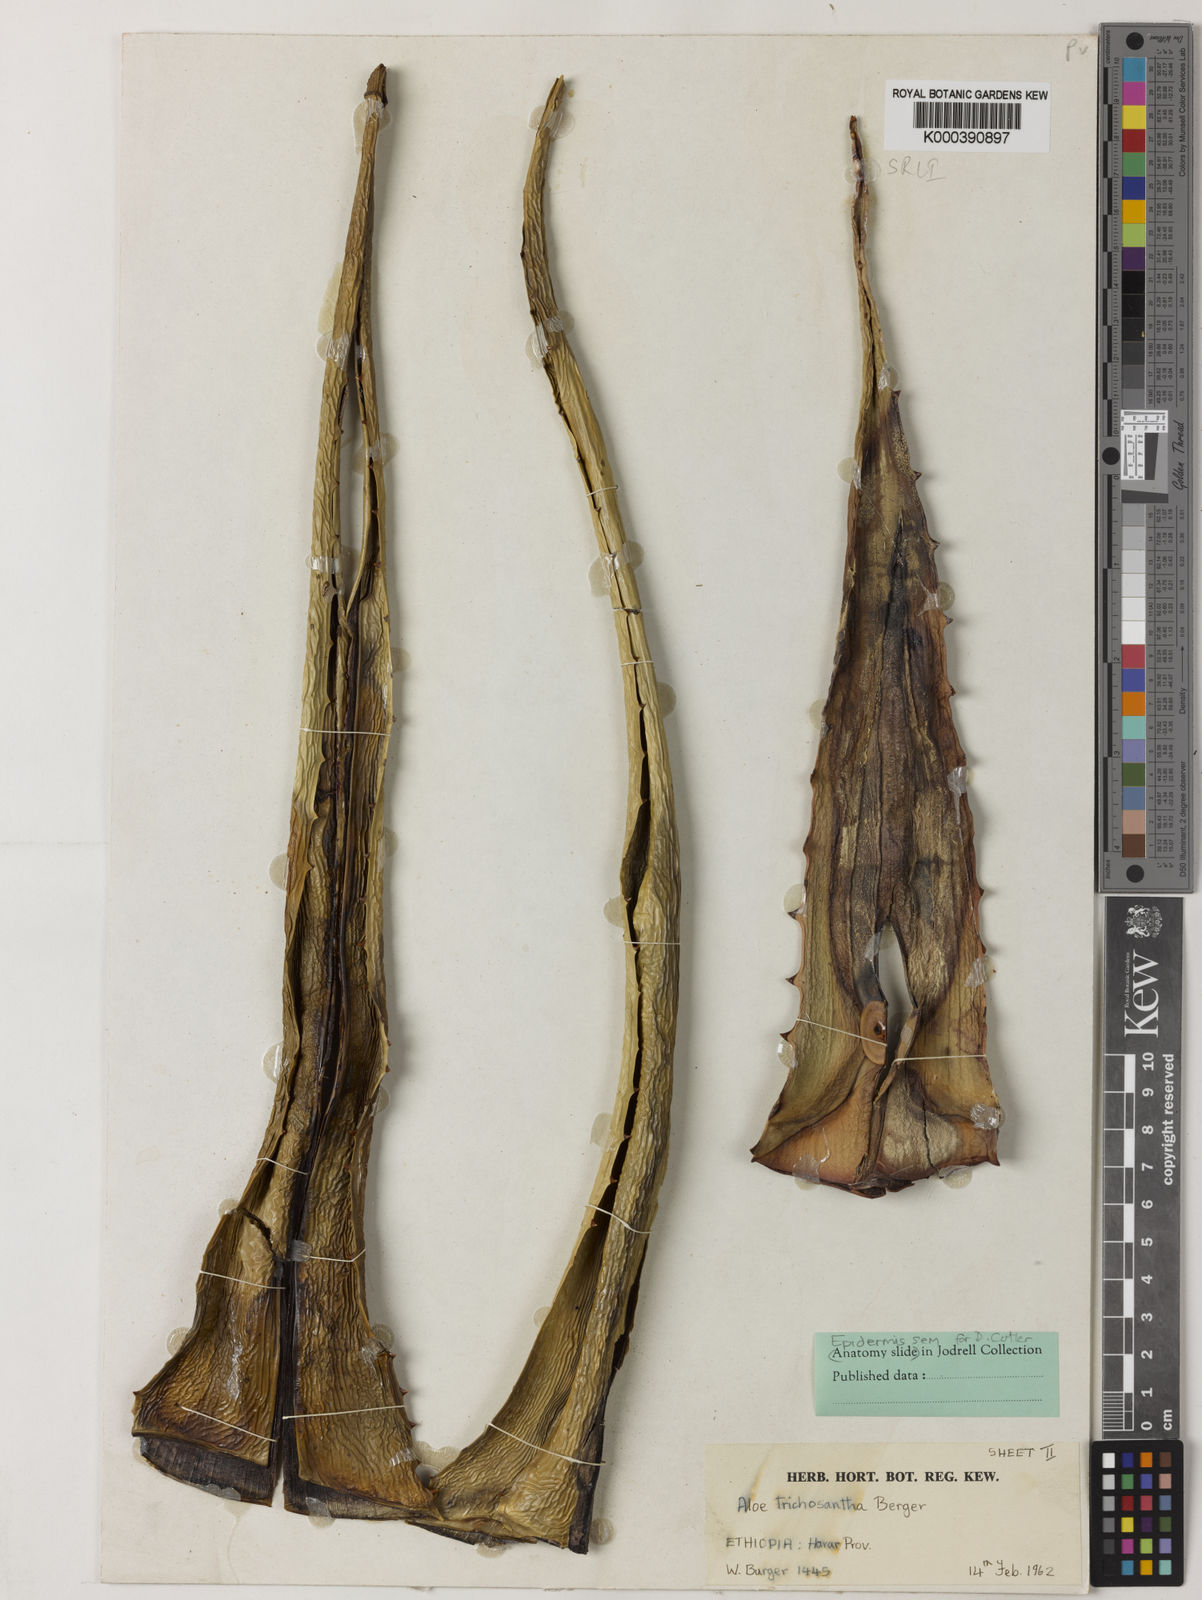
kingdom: Plantae
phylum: Tracheophyta
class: Liliopsida
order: Asparagales
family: Asphodelaceae
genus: Aloe
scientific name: Aloe pubescens
